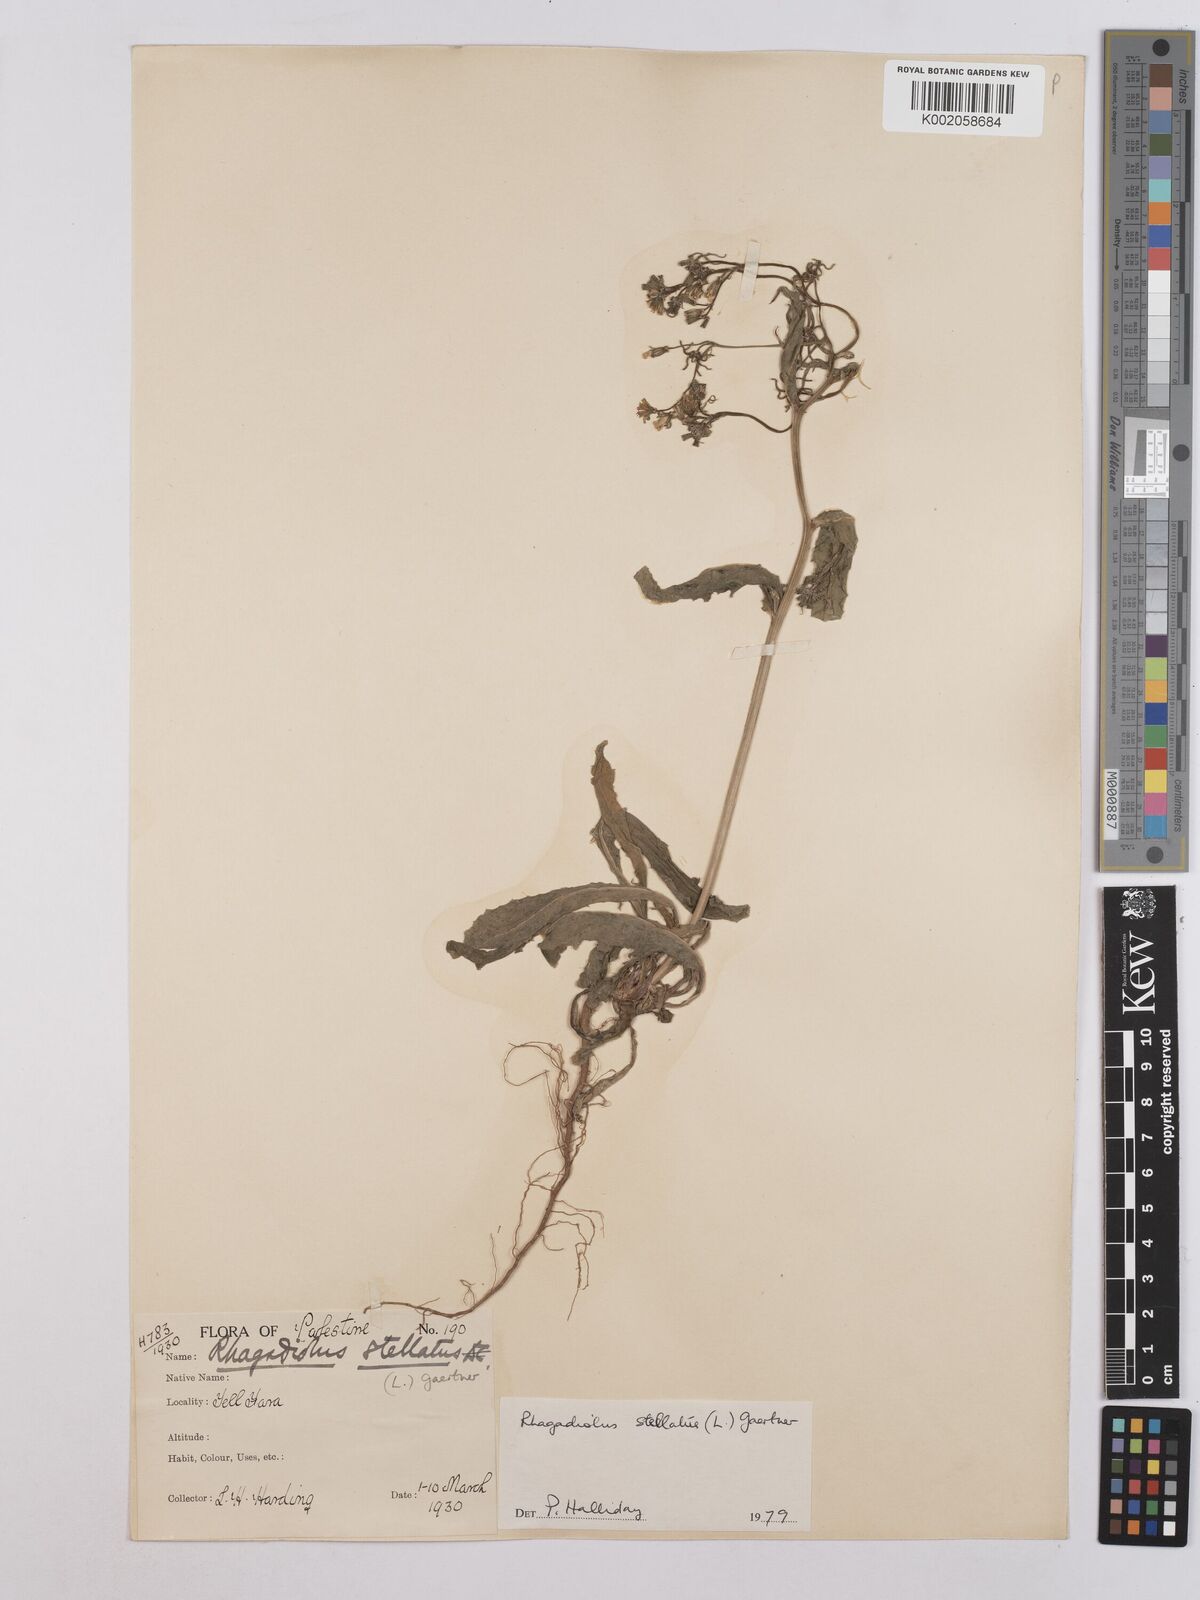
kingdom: Plantae
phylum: Tracheophyta
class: Magnoliopsida
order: Asterales
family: Asteraceae
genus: Rhagadiolus
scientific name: Rhagadiolus stellatus
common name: Star hawkbit
